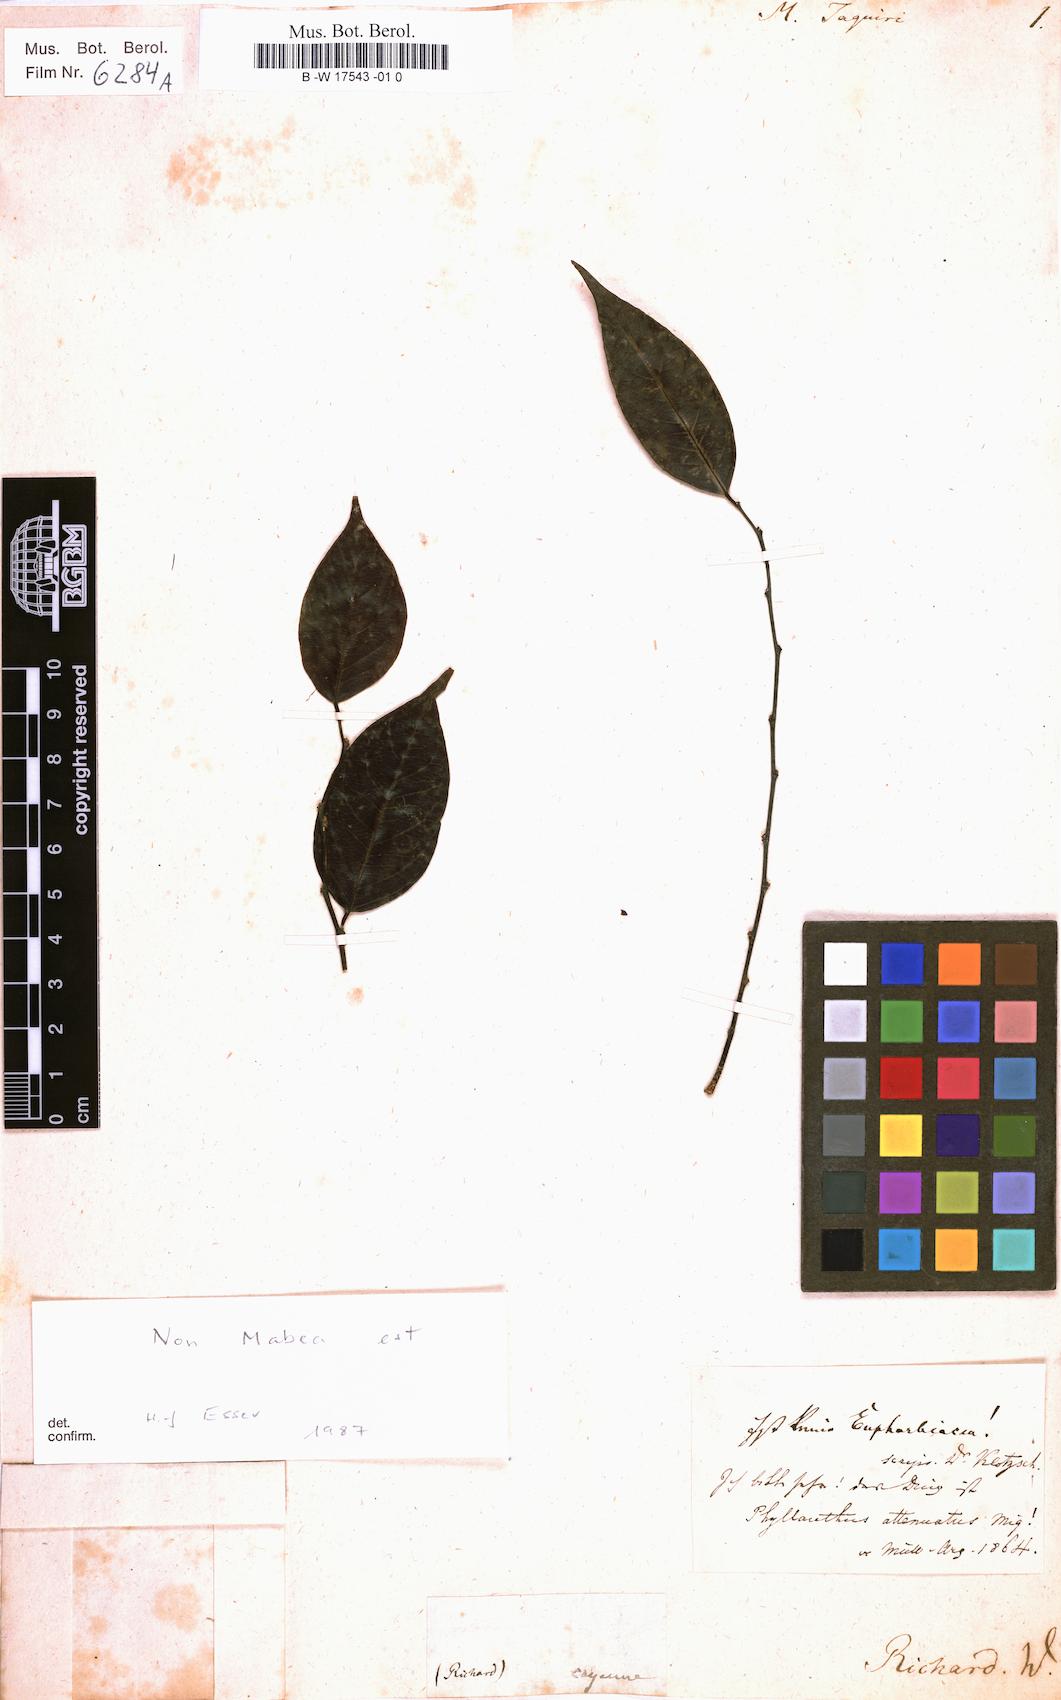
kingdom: Plantae
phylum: Tracheophyta
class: Magnoliopsida
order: Malpighiales
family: Euphorbiaceae
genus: Mabea
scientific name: Mabea taquari
